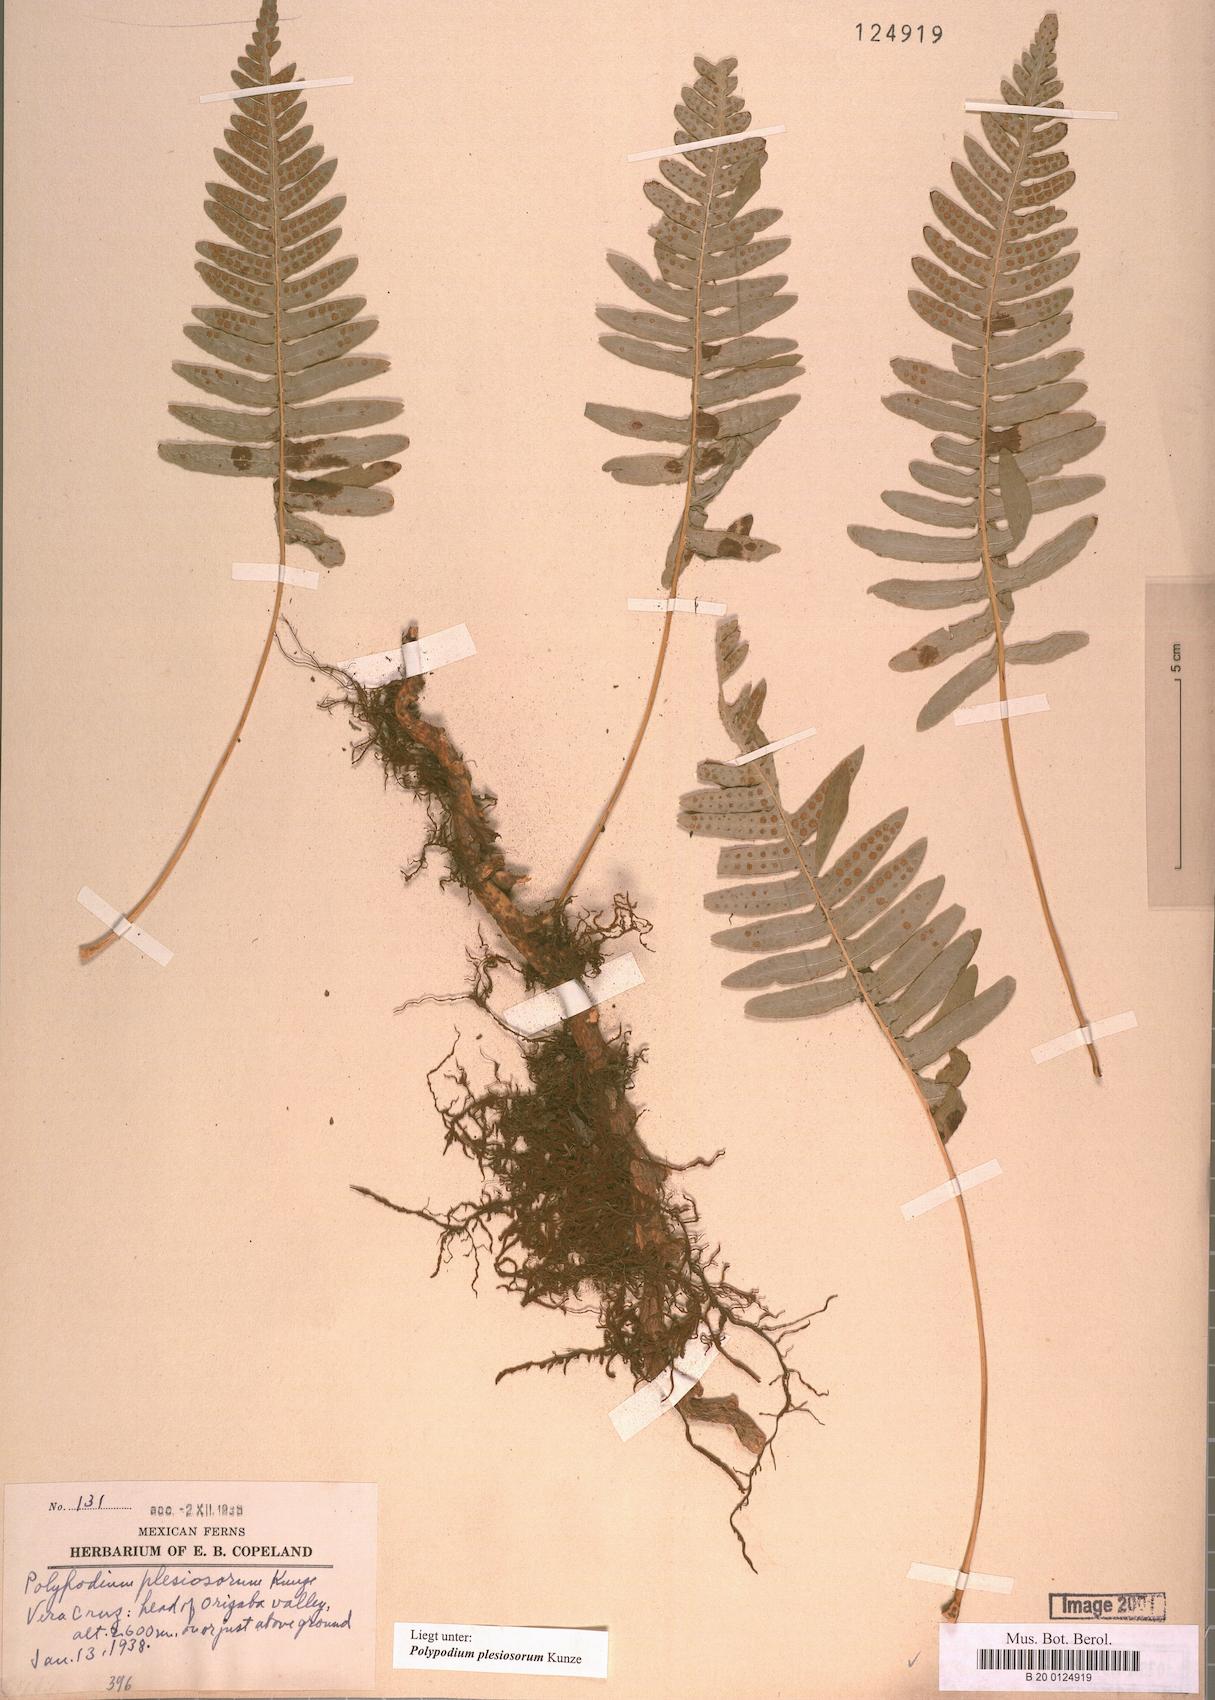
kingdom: Plantae
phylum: Tracheophyta
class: Polypodiopsida
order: Polypodiales
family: Polypodiaceae
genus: Polypodium
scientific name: Polypodium plesiosorum
